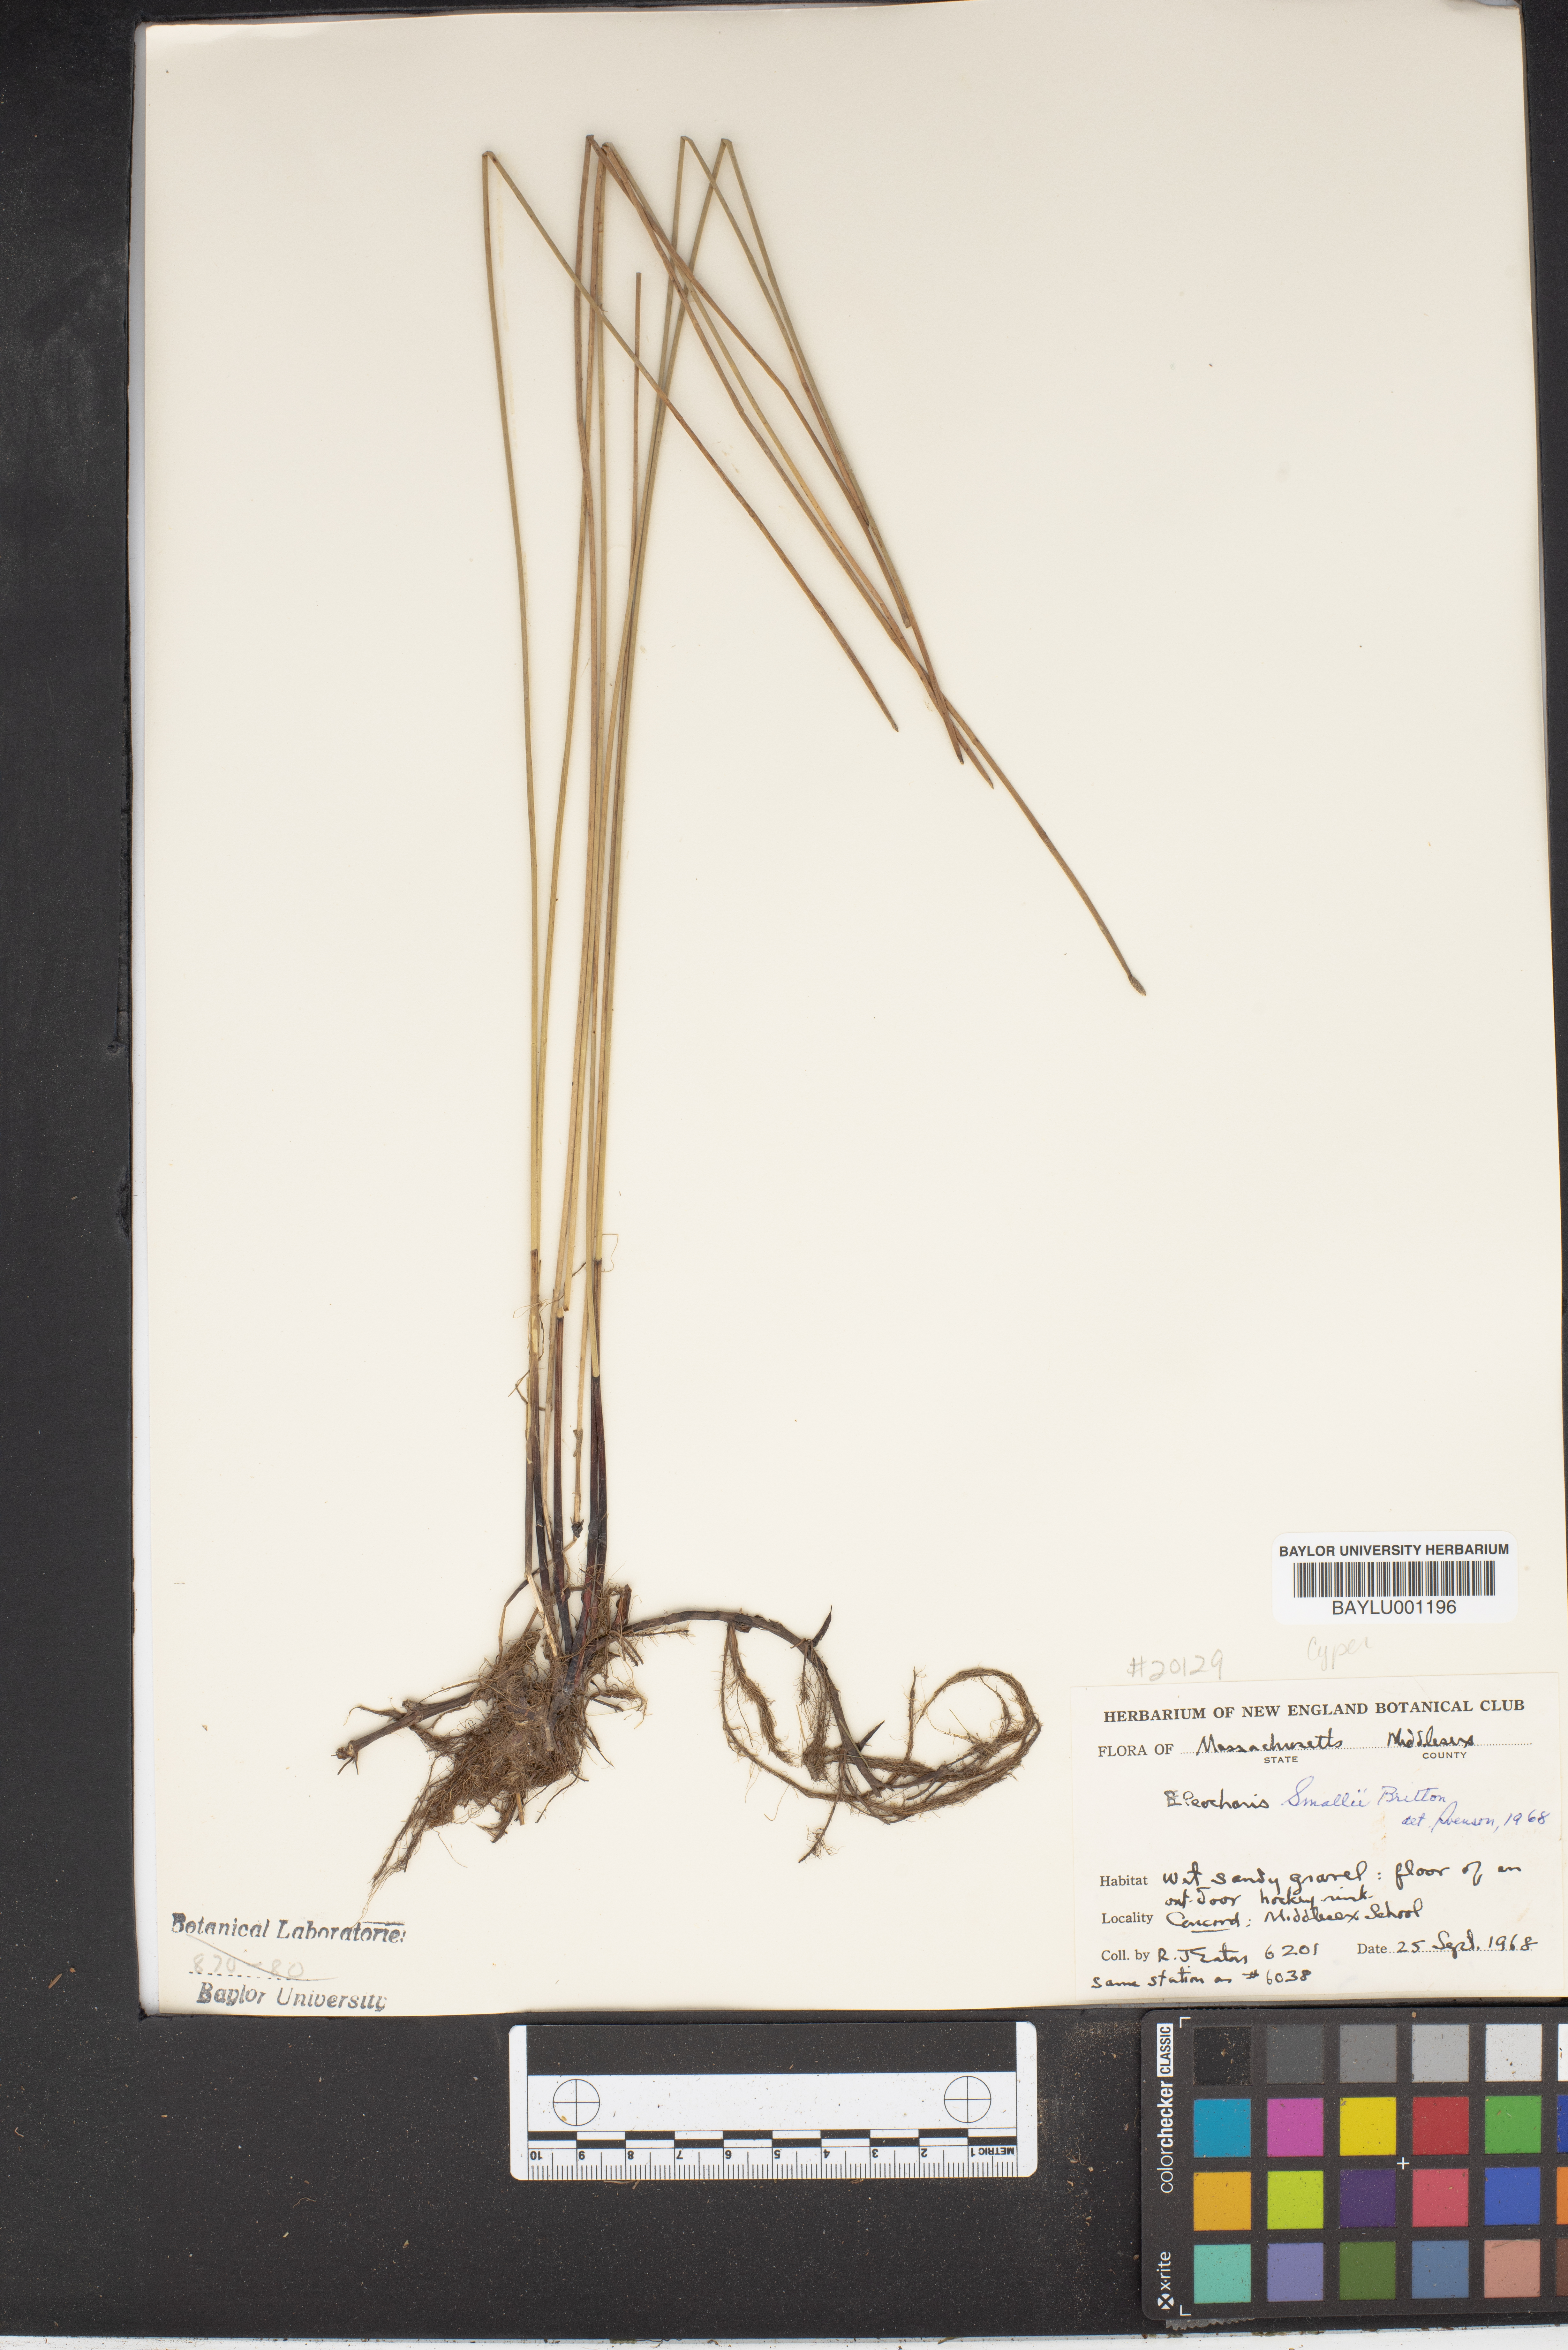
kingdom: Plantae
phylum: Tracheophyta
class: Liliopsida
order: Poales
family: Cyperaceae
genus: Eleocharis
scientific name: Eleocharis palustris
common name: Common spike-rush
